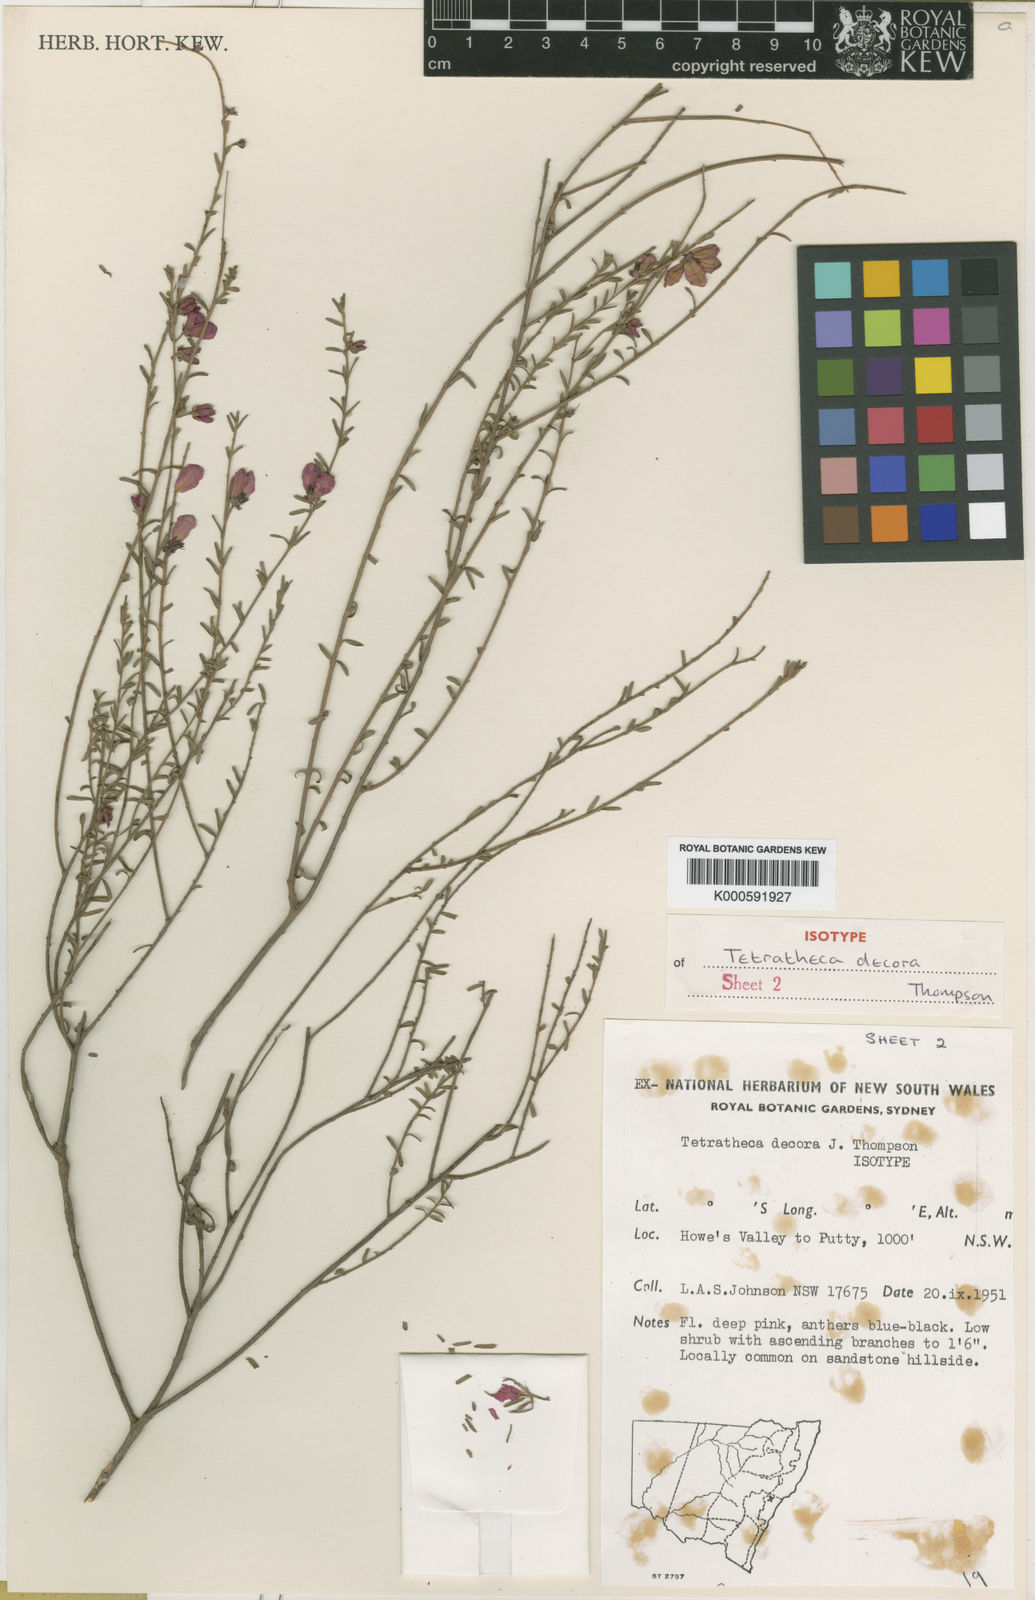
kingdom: Plantae
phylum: Tracheophyta
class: Magnoliopsida
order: Oxalidales
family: Elaeocarpaceae
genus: Tetratheca
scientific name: Tetratheca decora
